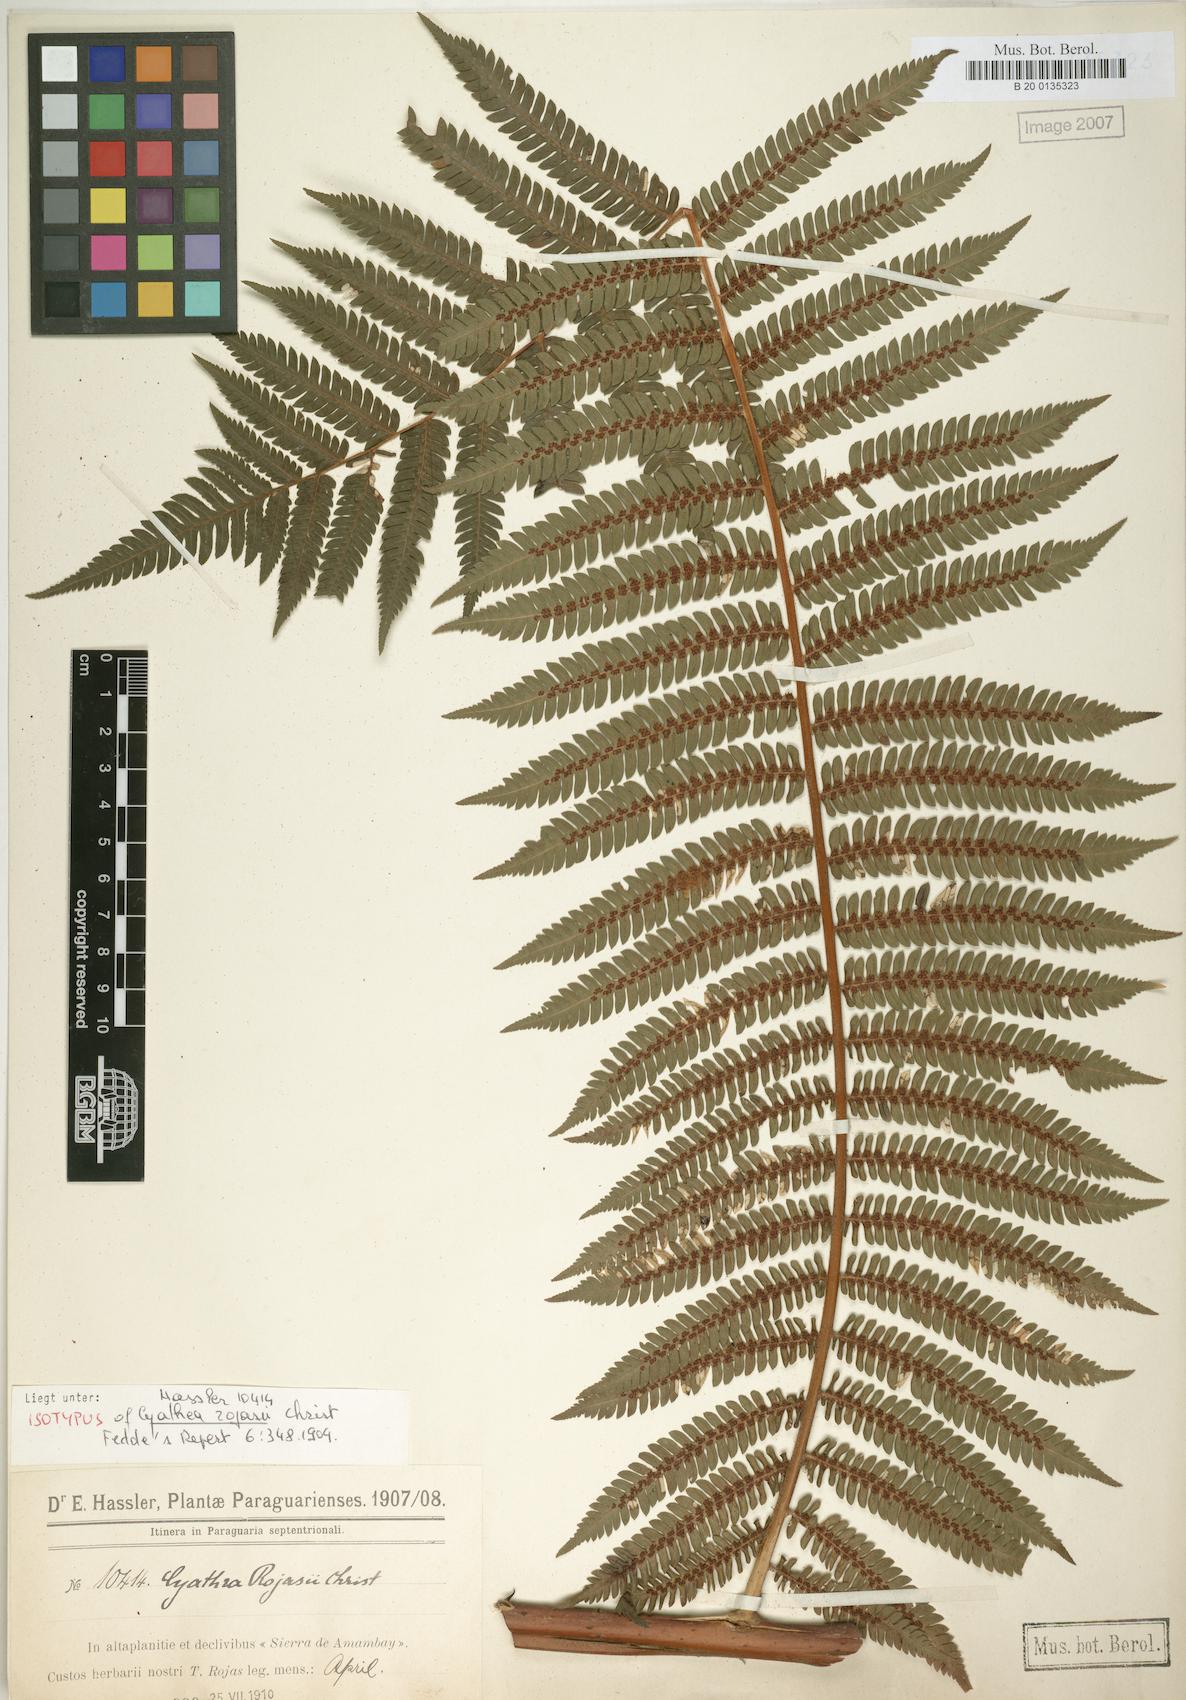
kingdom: Plantae
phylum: Tracheophyta
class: Polypodiopsida
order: Cyatheales
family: Cyatheaceae
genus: Alsophila
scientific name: Alsophila sternbergii
